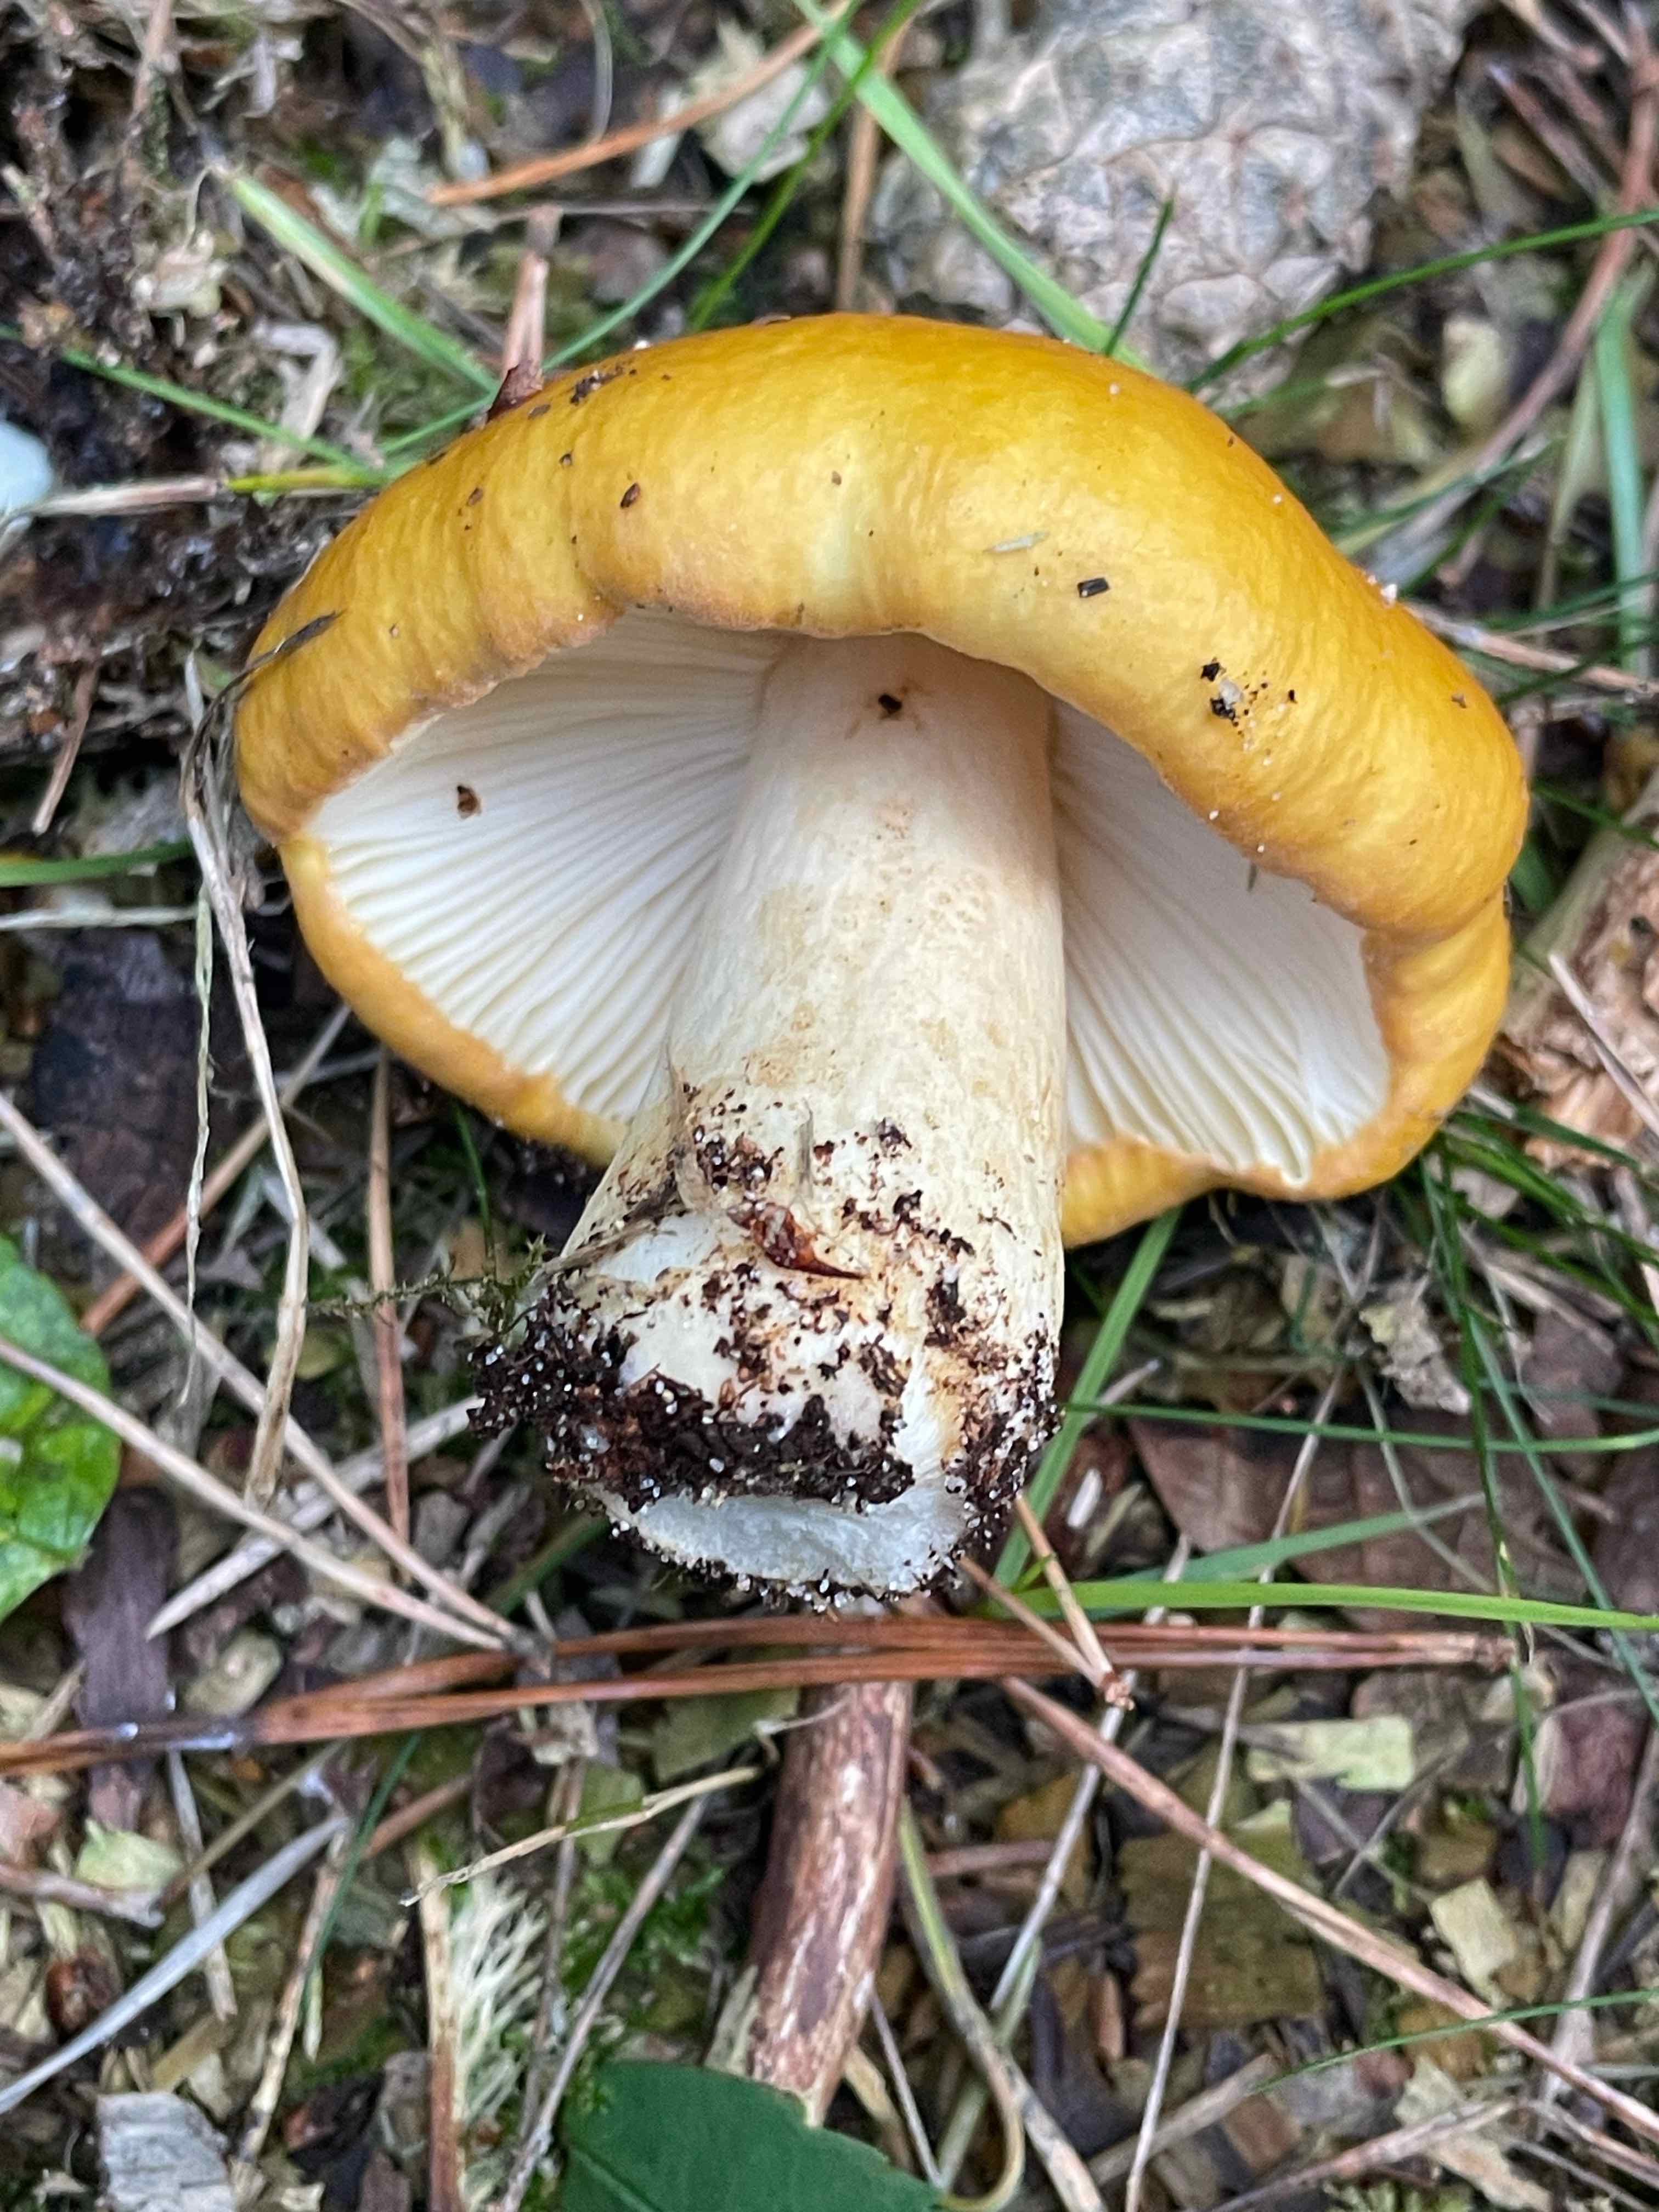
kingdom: Fungi
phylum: Basidiomycota
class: Agaricomycetes
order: Russulales
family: Russulaceae
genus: Russula
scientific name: Russula ochroleuca
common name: okkergul skørhat
